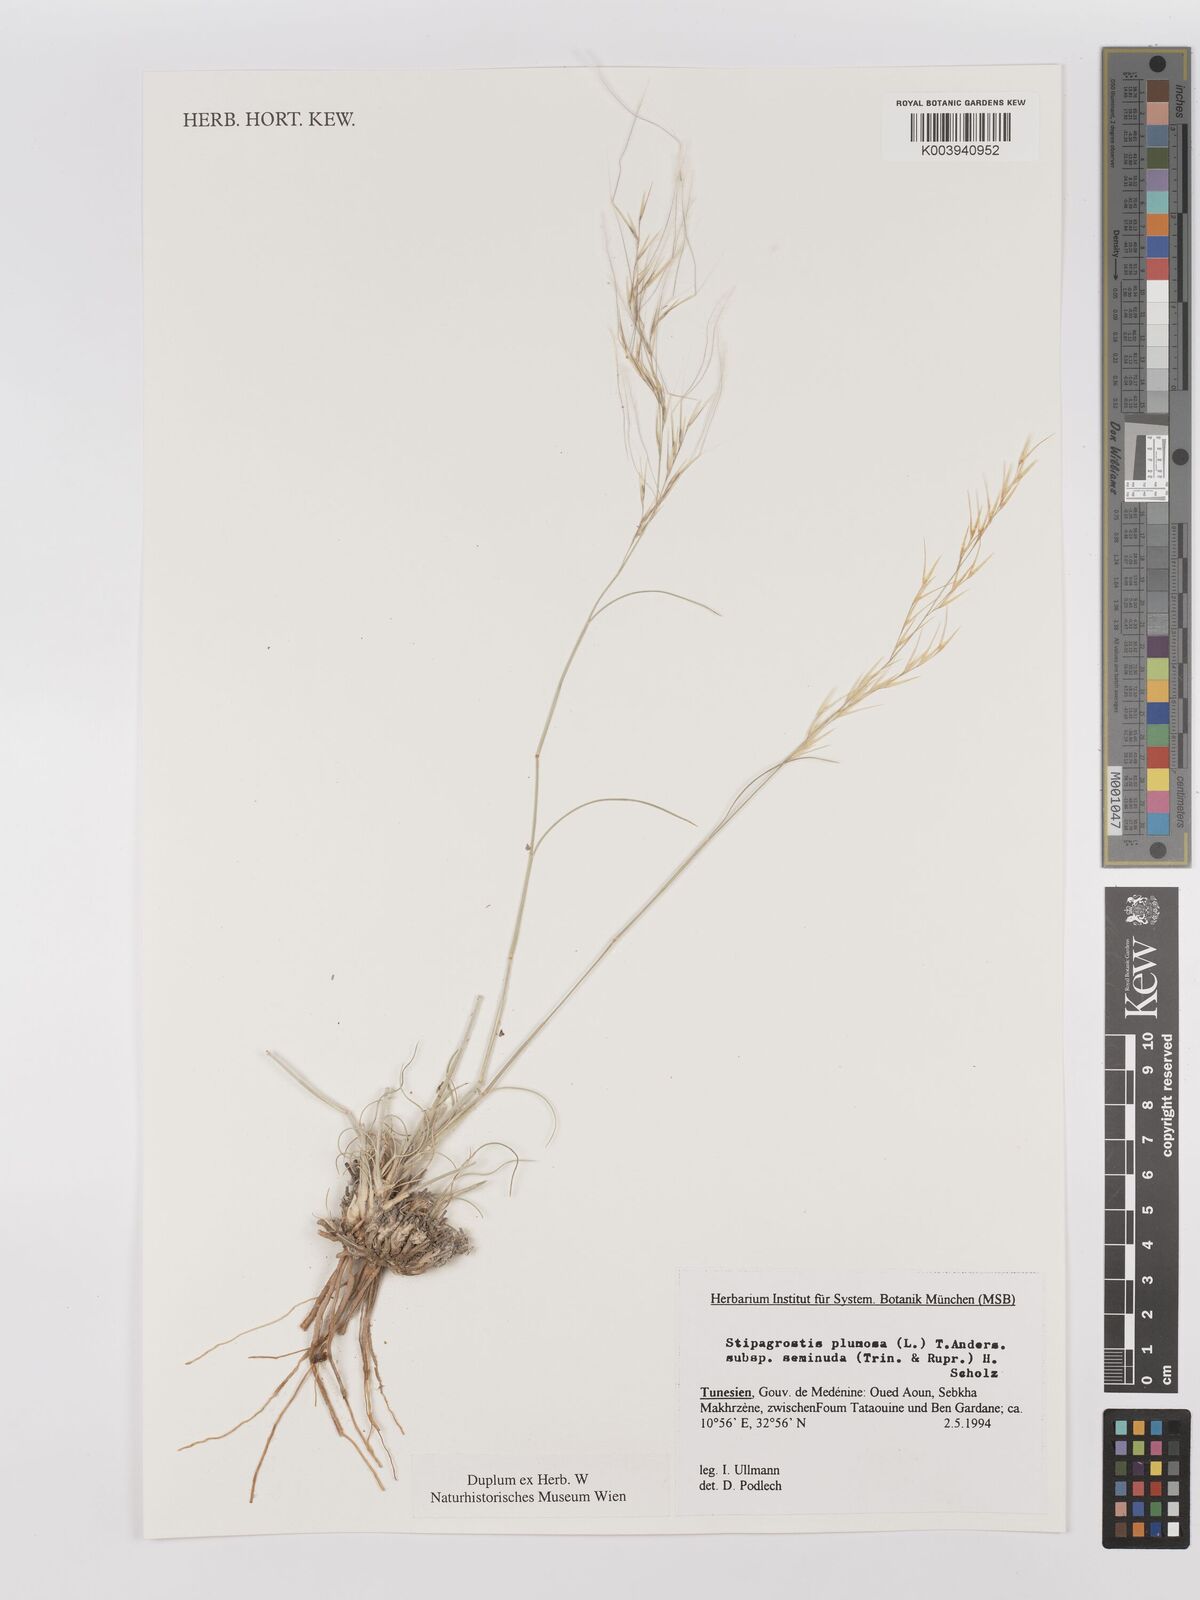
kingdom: Plantae
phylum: Tracheophyta
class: Liliopsida
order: Poales
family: Poaceae
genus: Stipagrostis
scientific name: Stipagrostis plumosa
